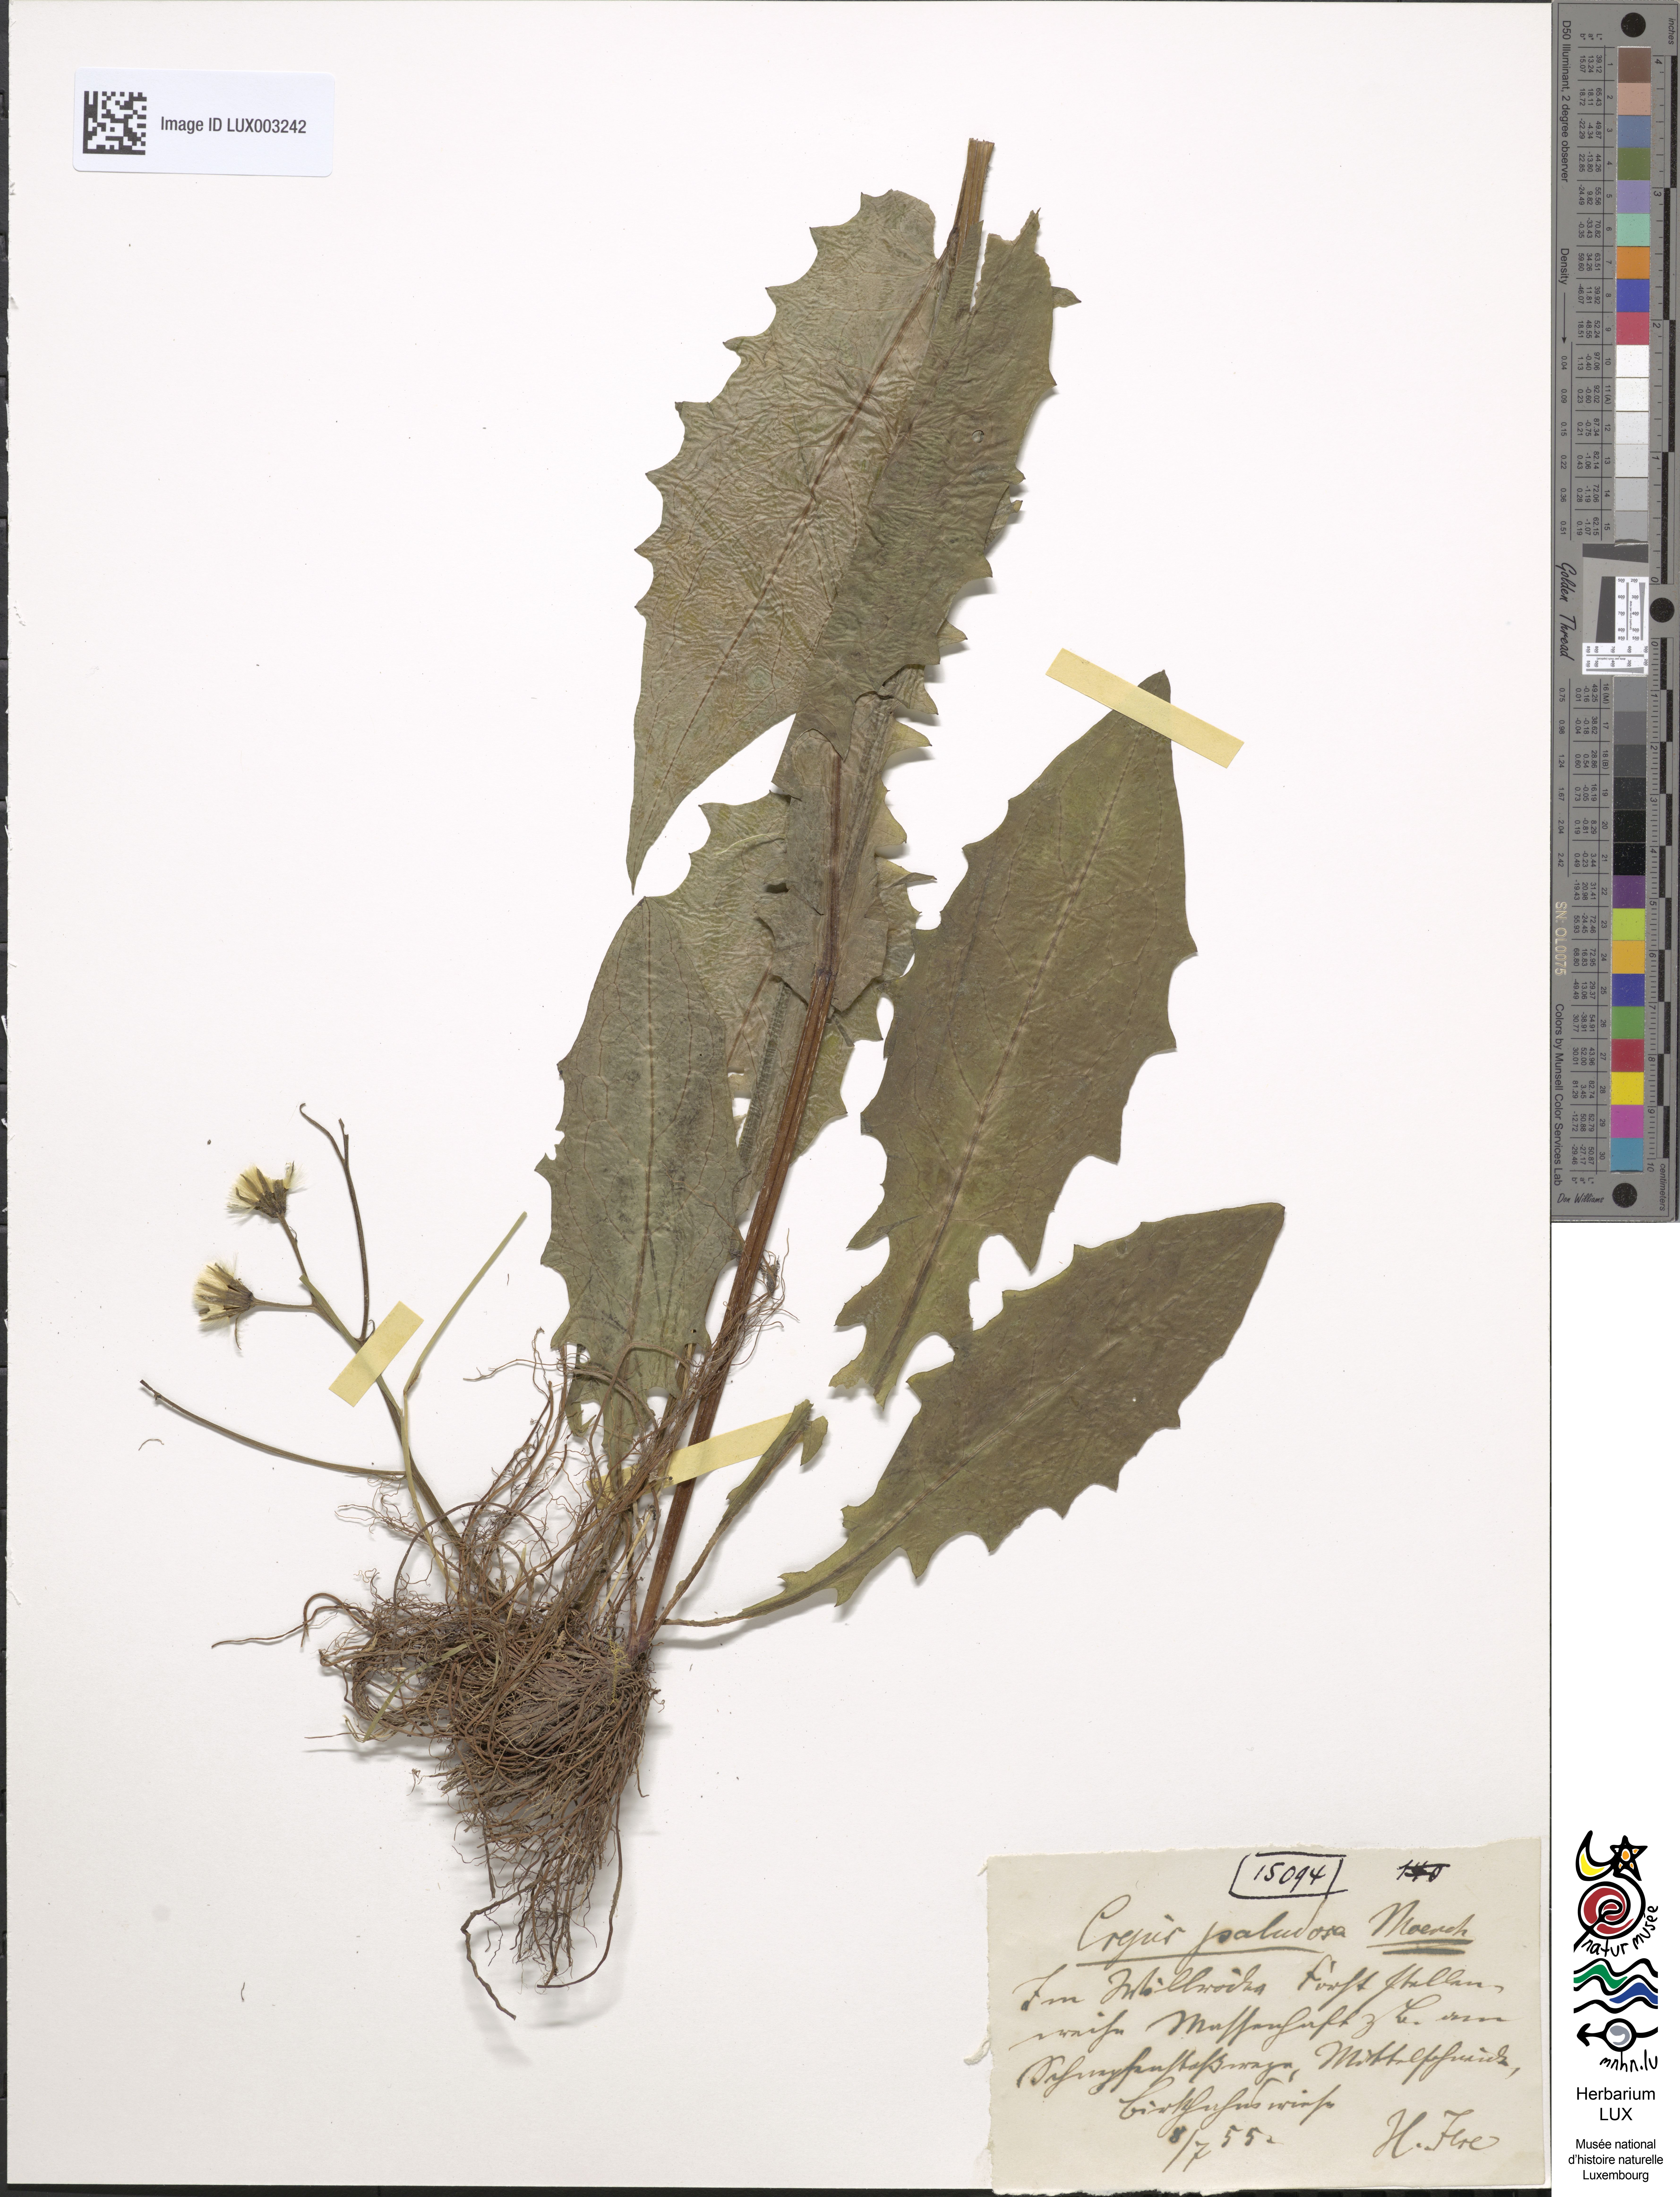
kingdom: Plantae
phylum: Tracheophyta
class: Magnoliopsida
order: Asterales
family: Asteraceae
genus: Crepis
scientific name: Crepis paludosa
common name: Marsh hawk's-beard
